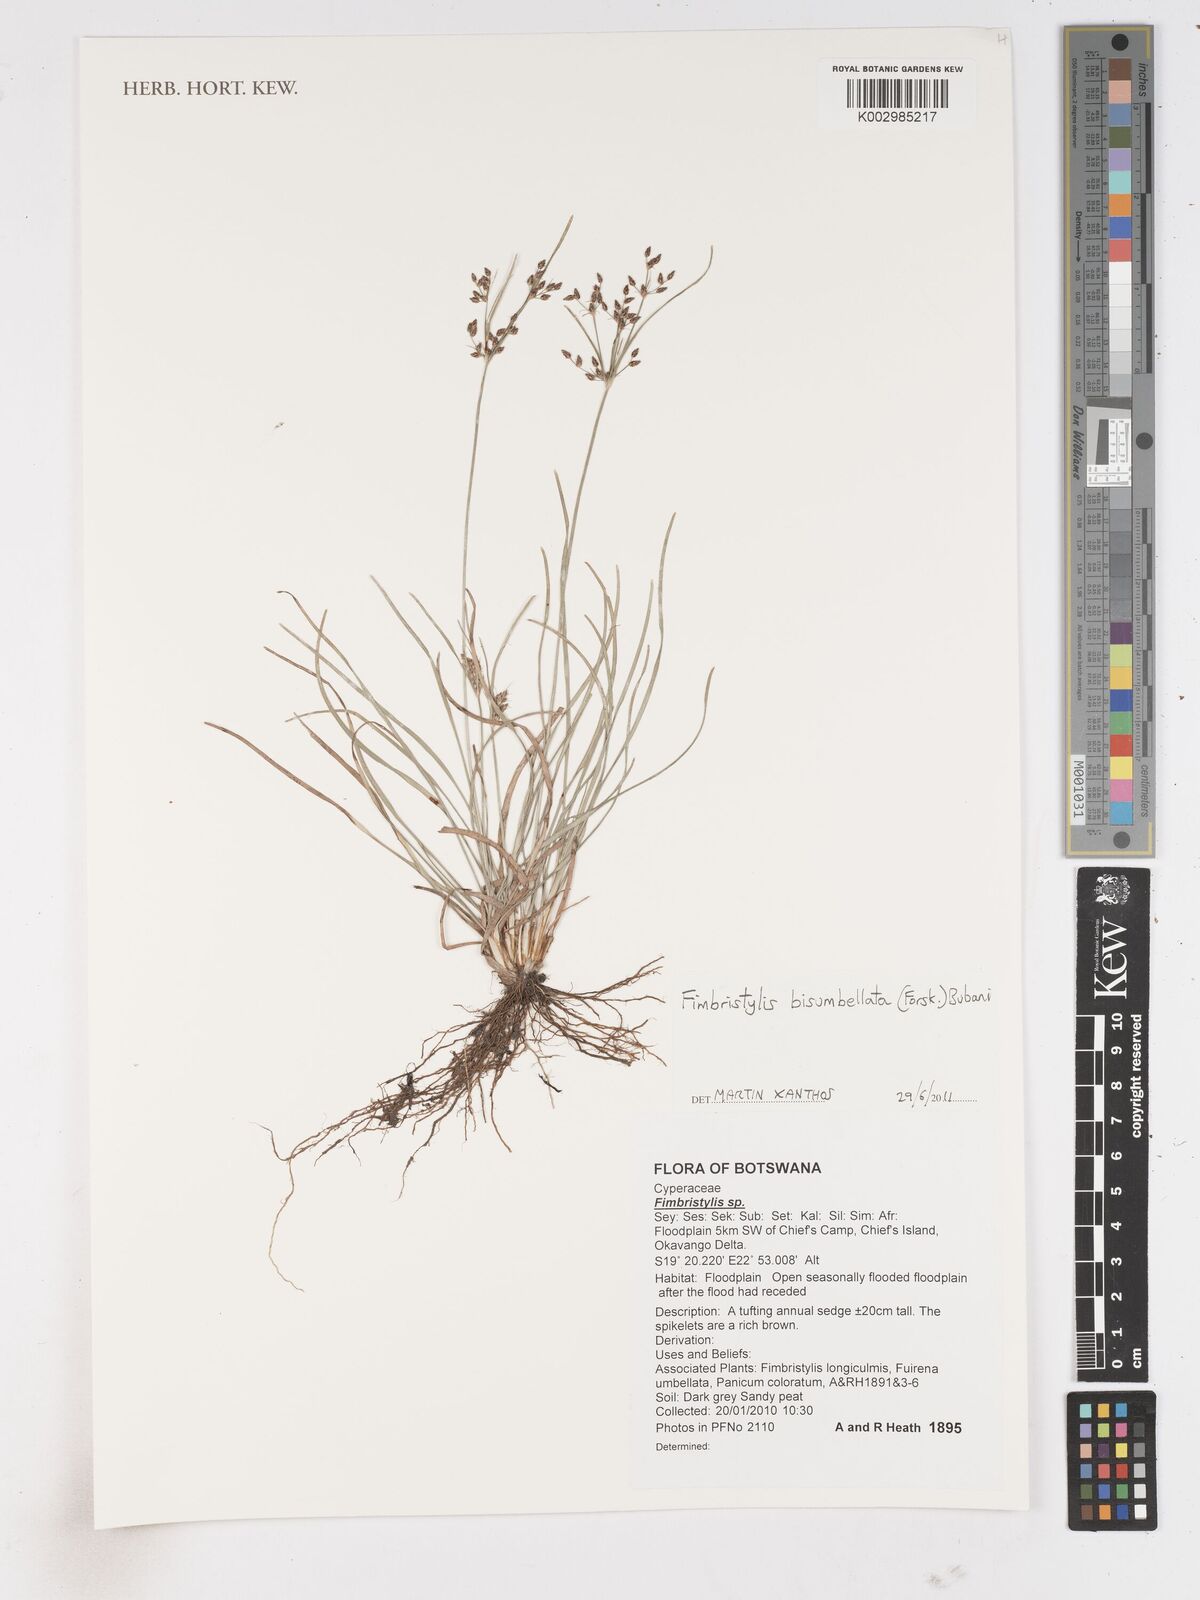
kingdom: Plantae
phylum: Tracheophyta
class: Liliopsida
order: Poales
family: Cyperaceae
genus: Fimbristylis
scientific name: Fimbristylis bisumbellata
